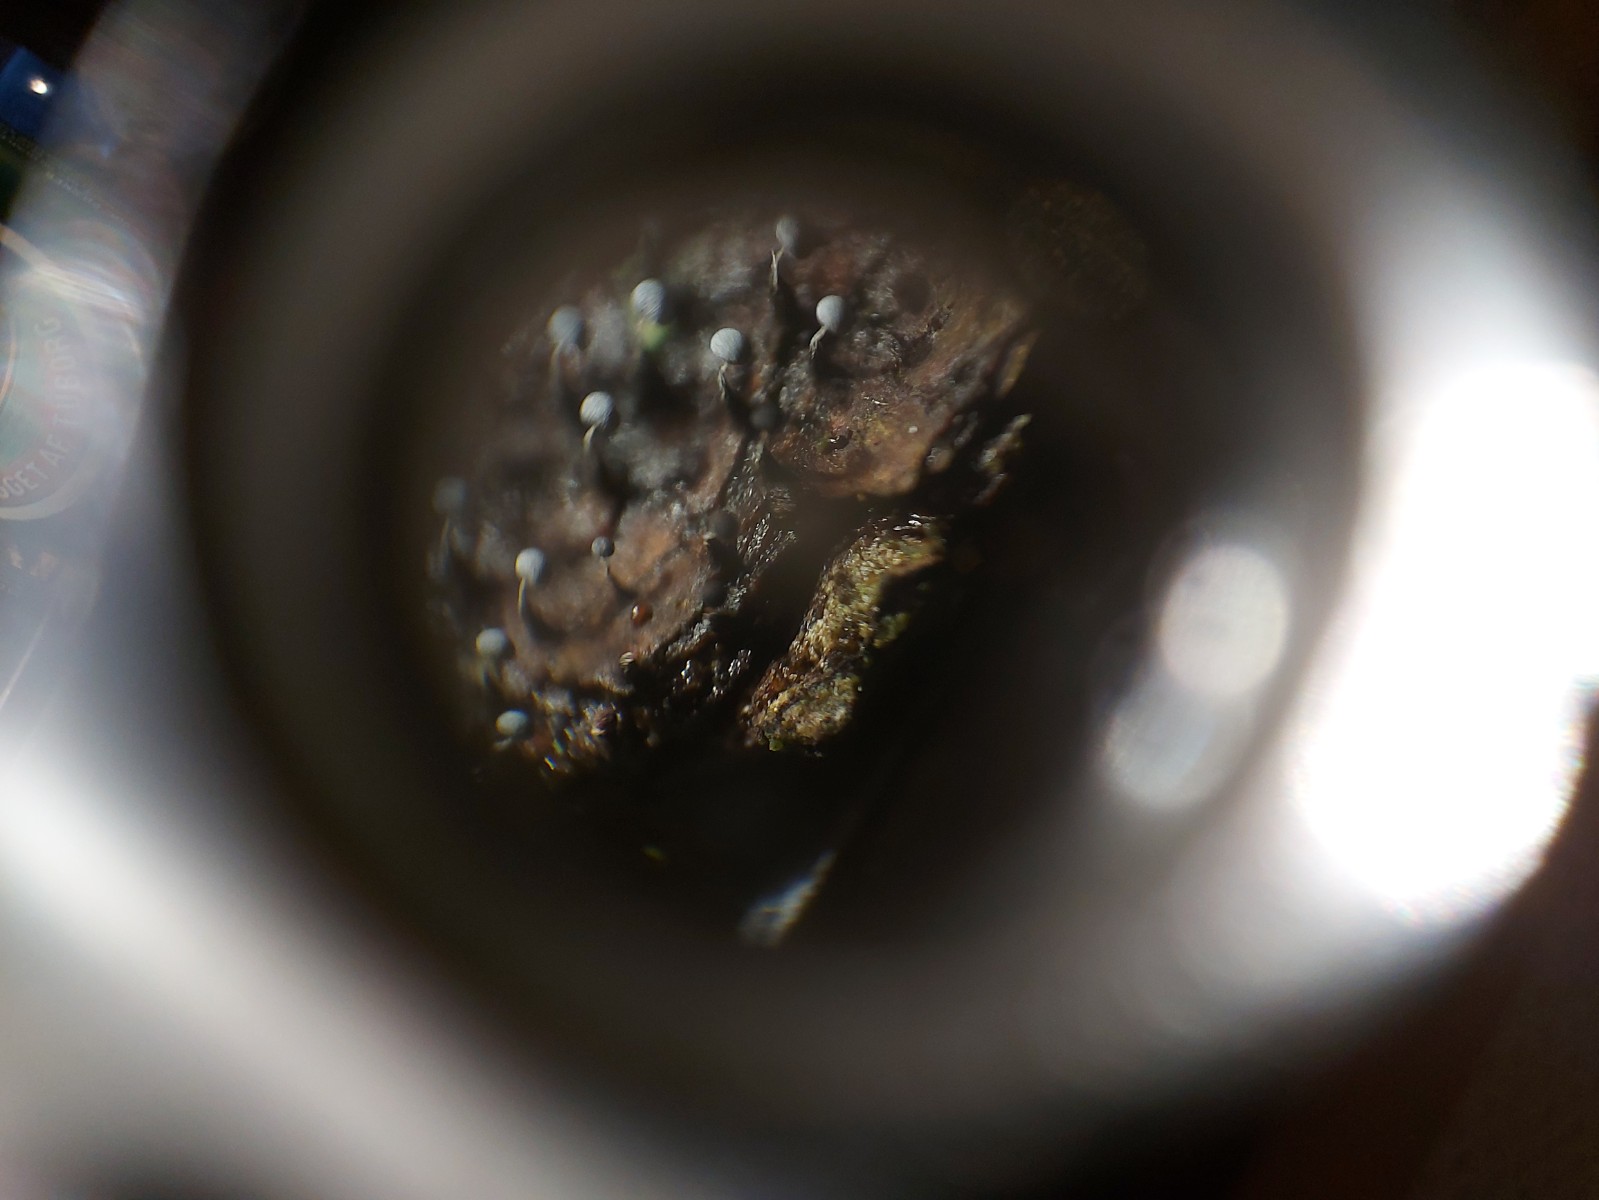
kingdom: Protozoa
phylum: Mycetozoa
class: Myxomycetes
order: Physarales
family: Physaraceae
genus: Physarum
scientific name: Physarum album
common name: nikkende støvknop
